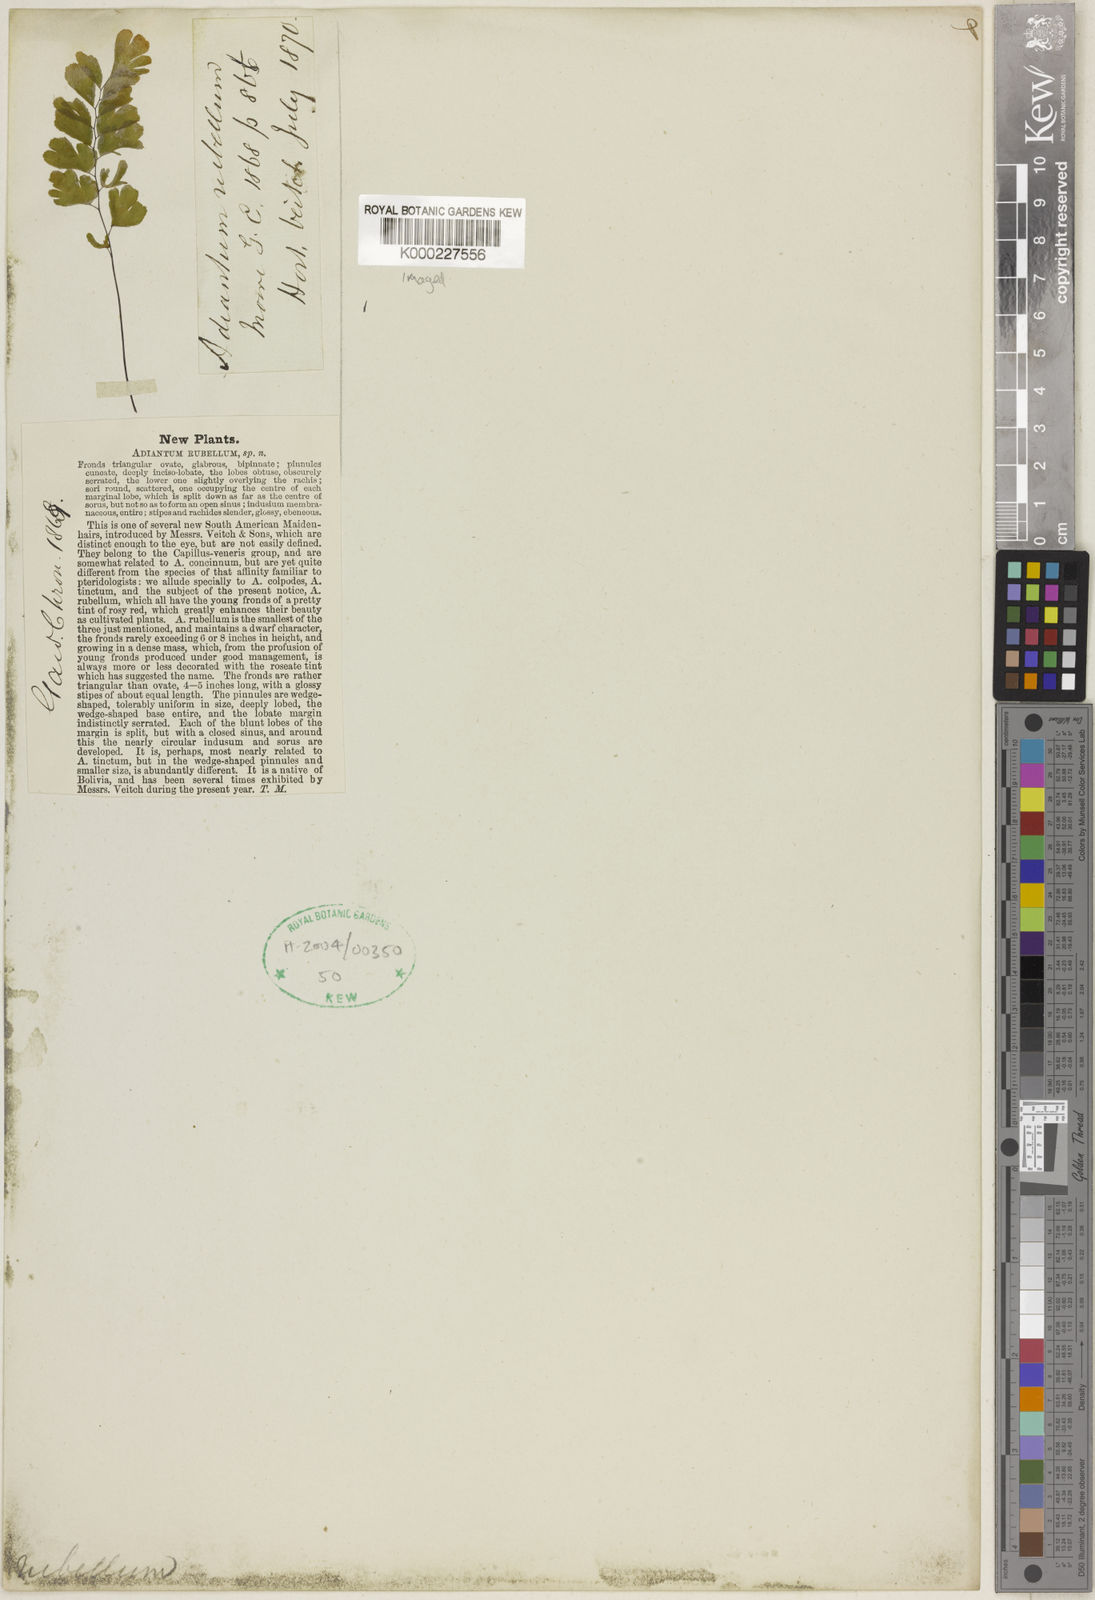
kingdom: Plantae
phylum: Tracheophyta
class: Polypodiopsida
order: Polypodiales
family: Pteridaceae
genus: Adiantum
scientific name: Adiantum raddianum
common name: Delta maidenhair fern
